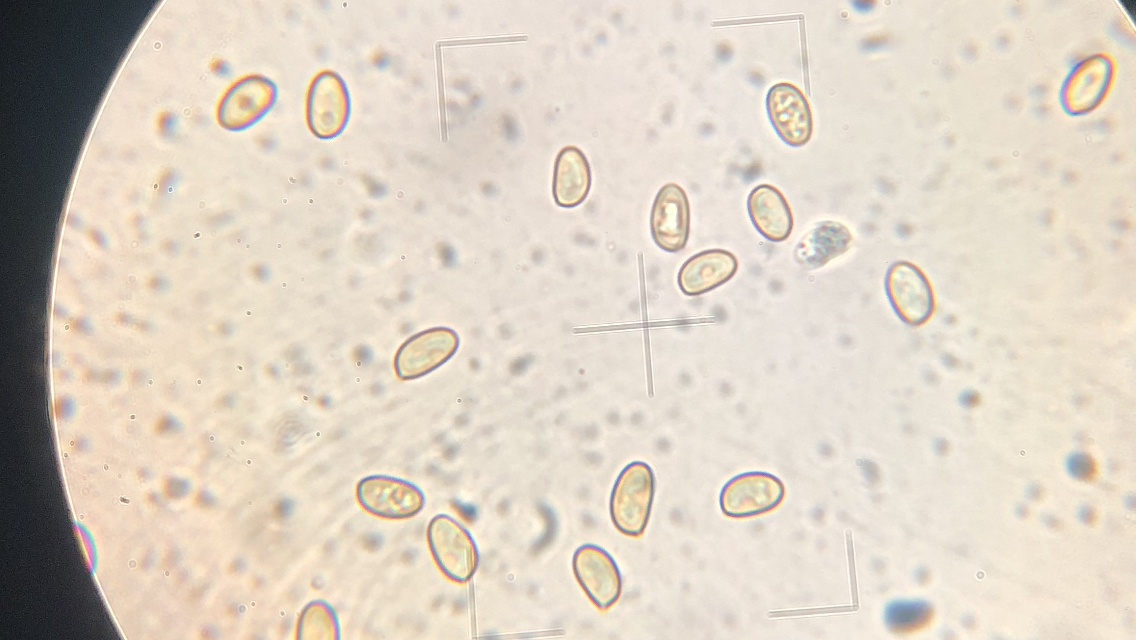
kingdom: Fungi
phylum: Basidiomycota
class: Agaricomycetes
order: Agaricales
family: Hymenogastraceae
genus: Galerina
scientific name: Galerina sideroides
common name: træflis-hjelmhat
